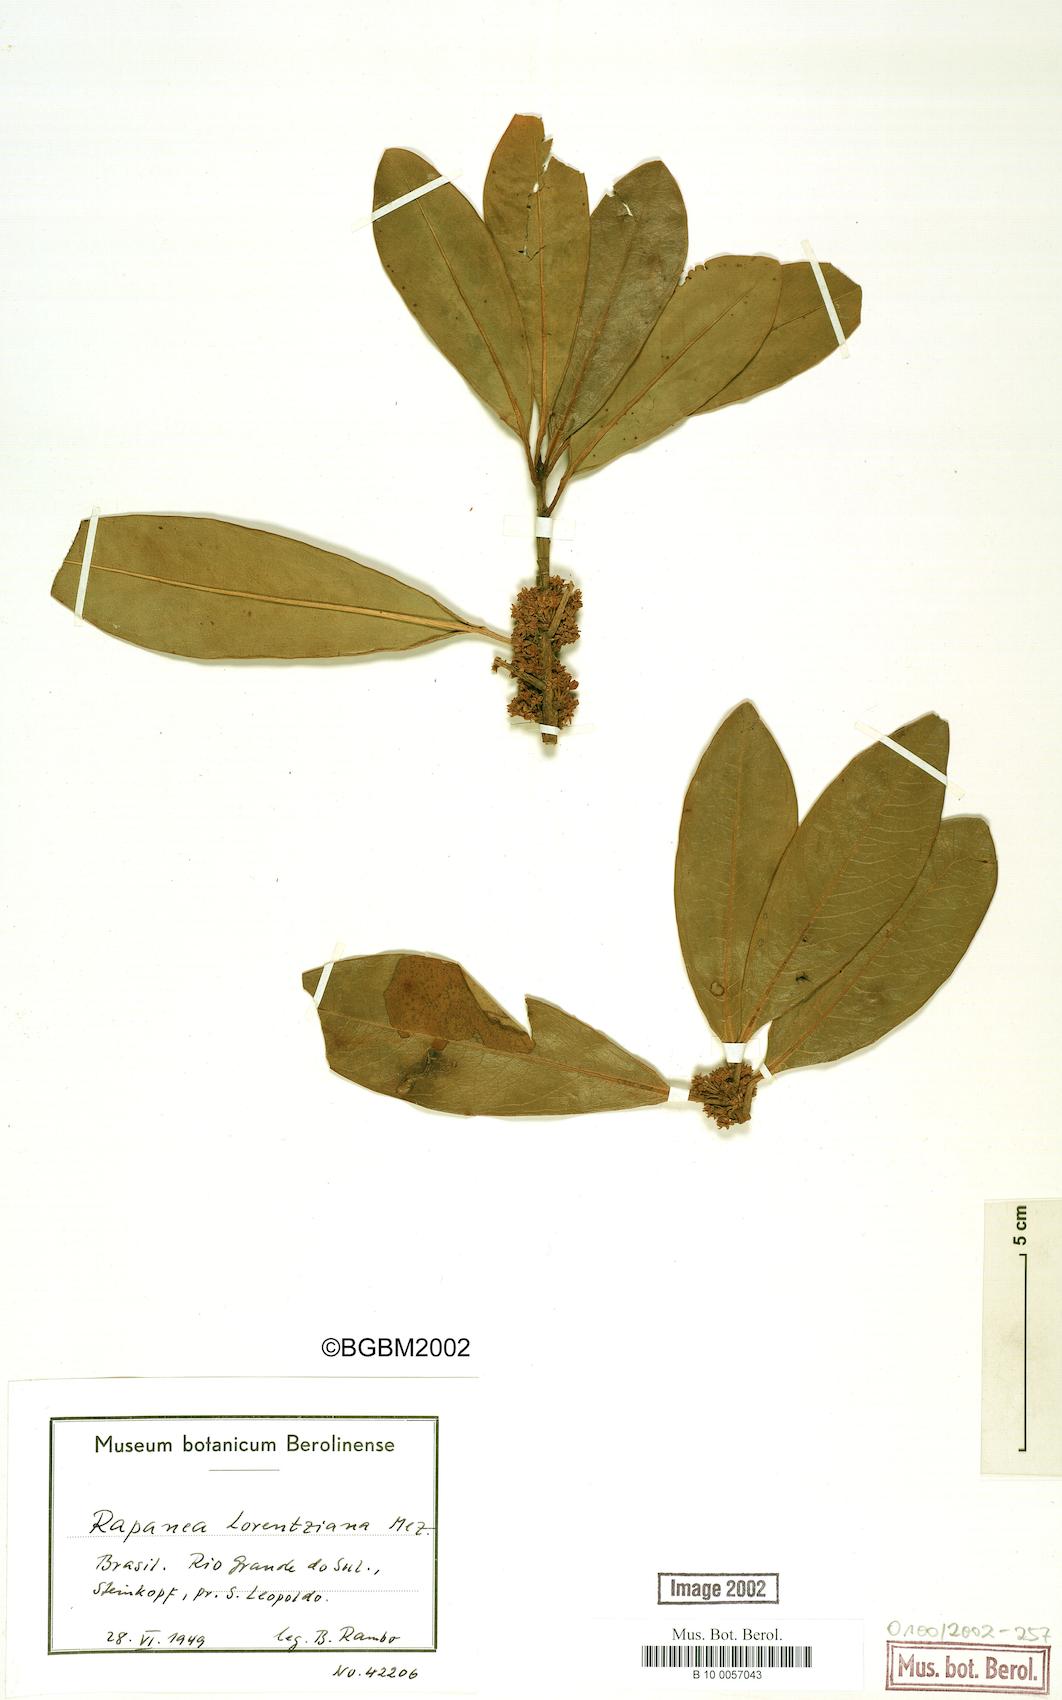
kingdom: Plantae
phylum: Tracheophyta
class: Magnoliopsida
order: Ericales
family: Primulaceae
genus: Myrsine
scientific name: Myrsine lorentziana
